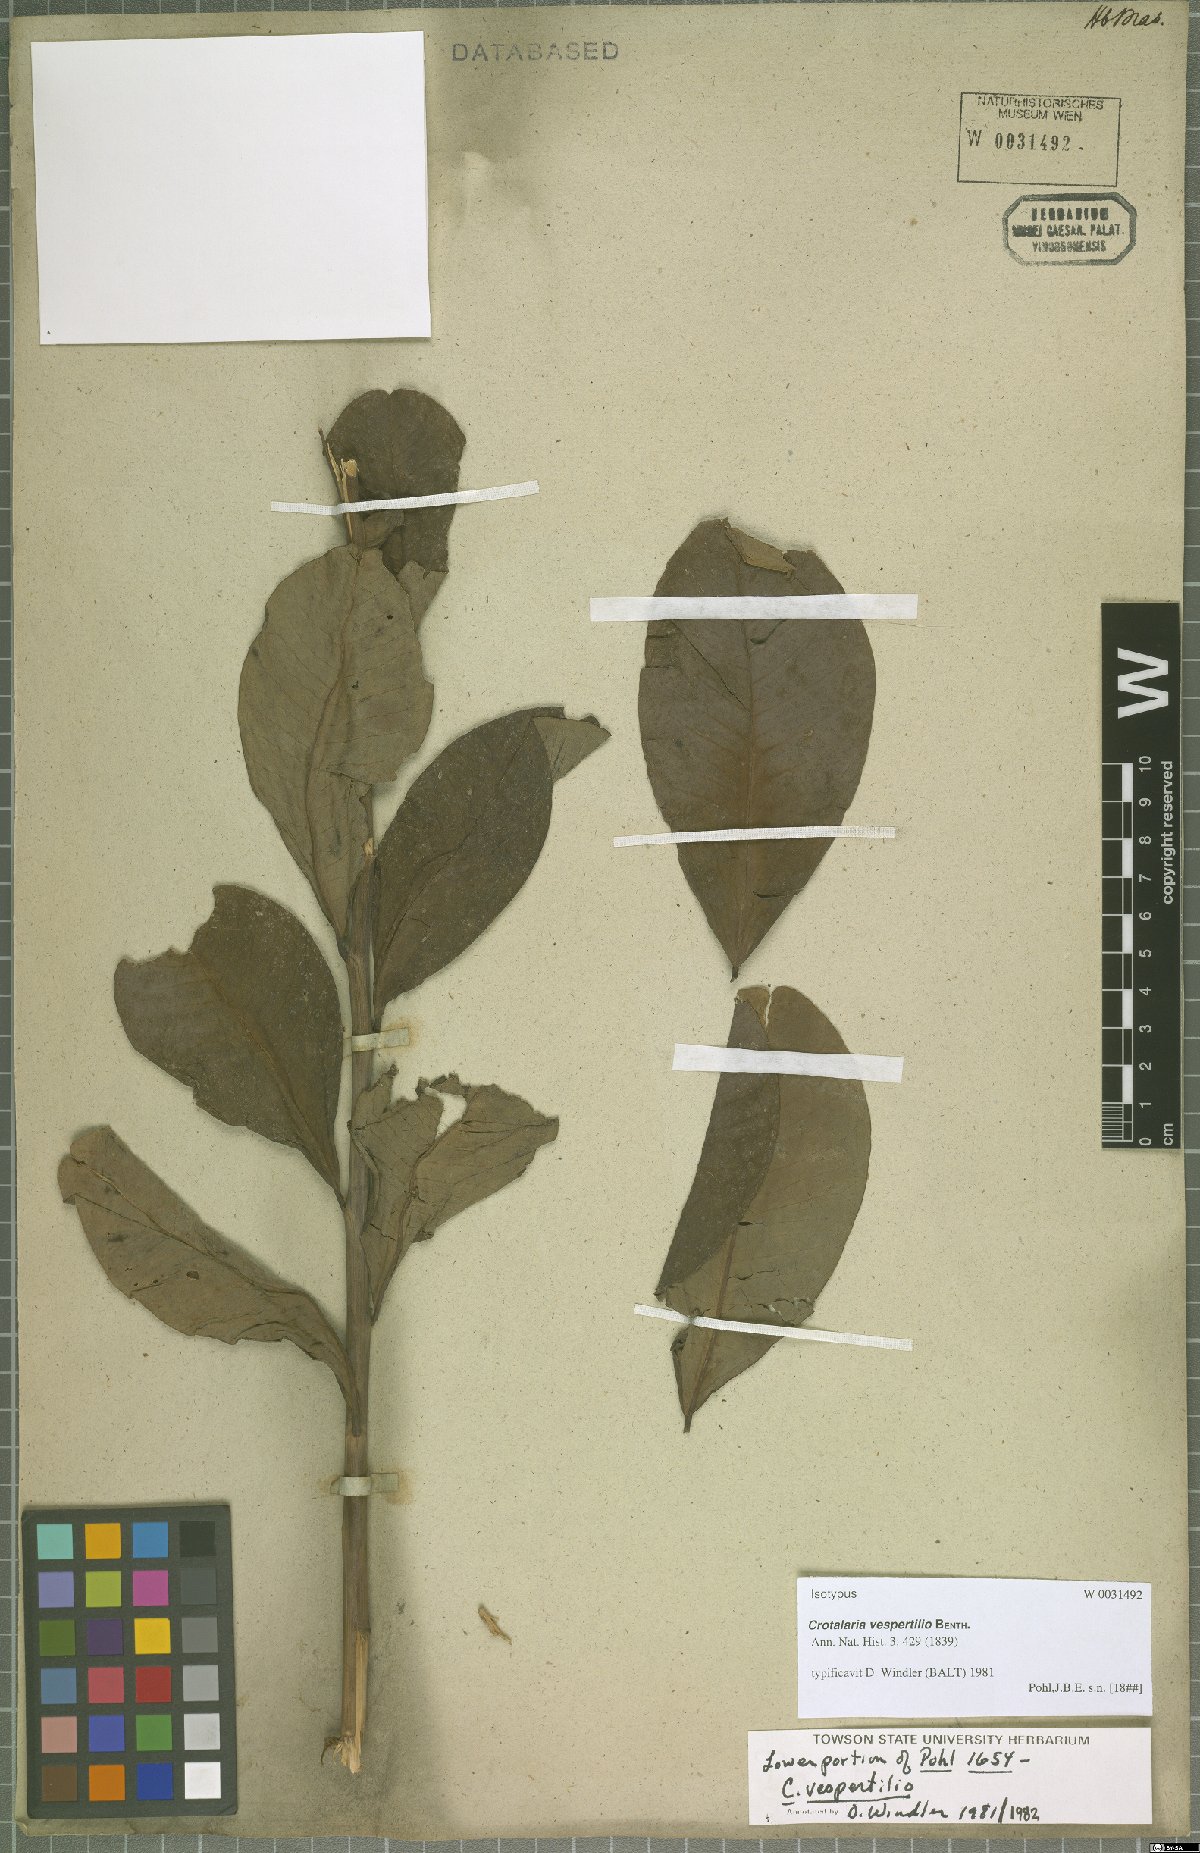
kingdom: Plantae
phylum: Tracheophyta
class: Magnoliopsida
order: Fabales
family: Fabaceae
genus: Crotalaria
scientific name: Crotalaria vespertilio
